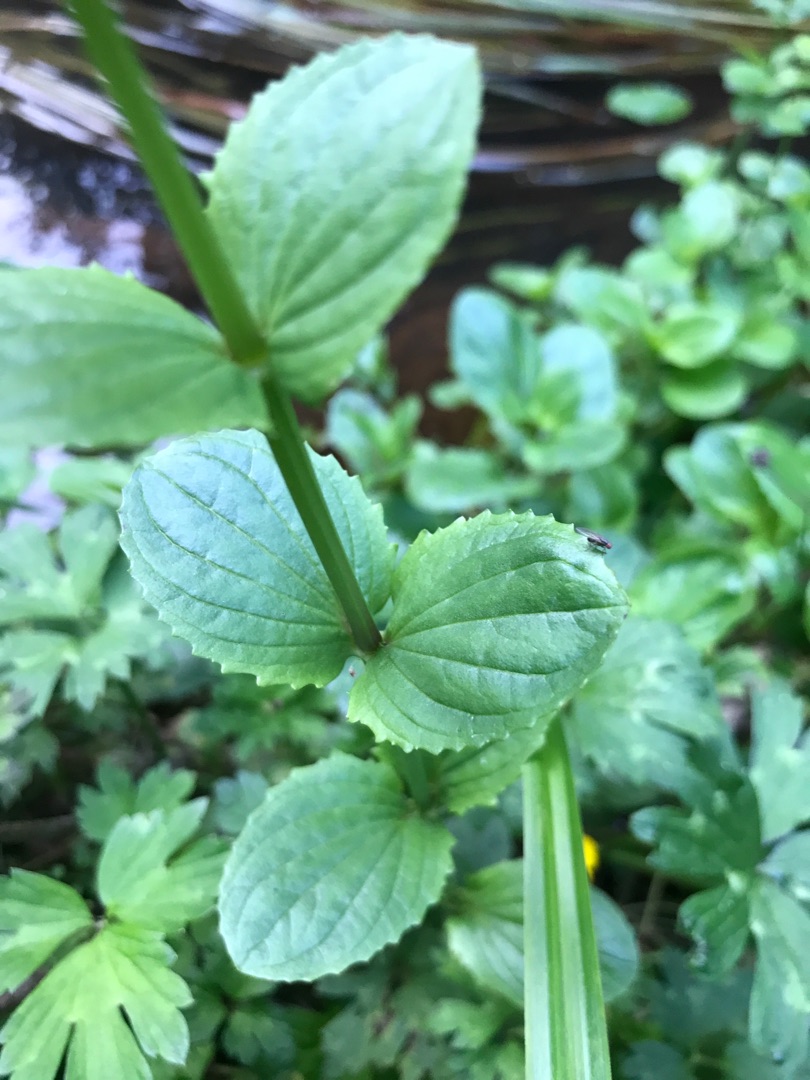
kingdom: Plantae
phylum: Tracheophyta
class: Magnoliopsida
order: Lamiales
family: Phrymaceae
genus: Erythranthe
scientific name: Erythranthe guttata
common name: Abeblomst
